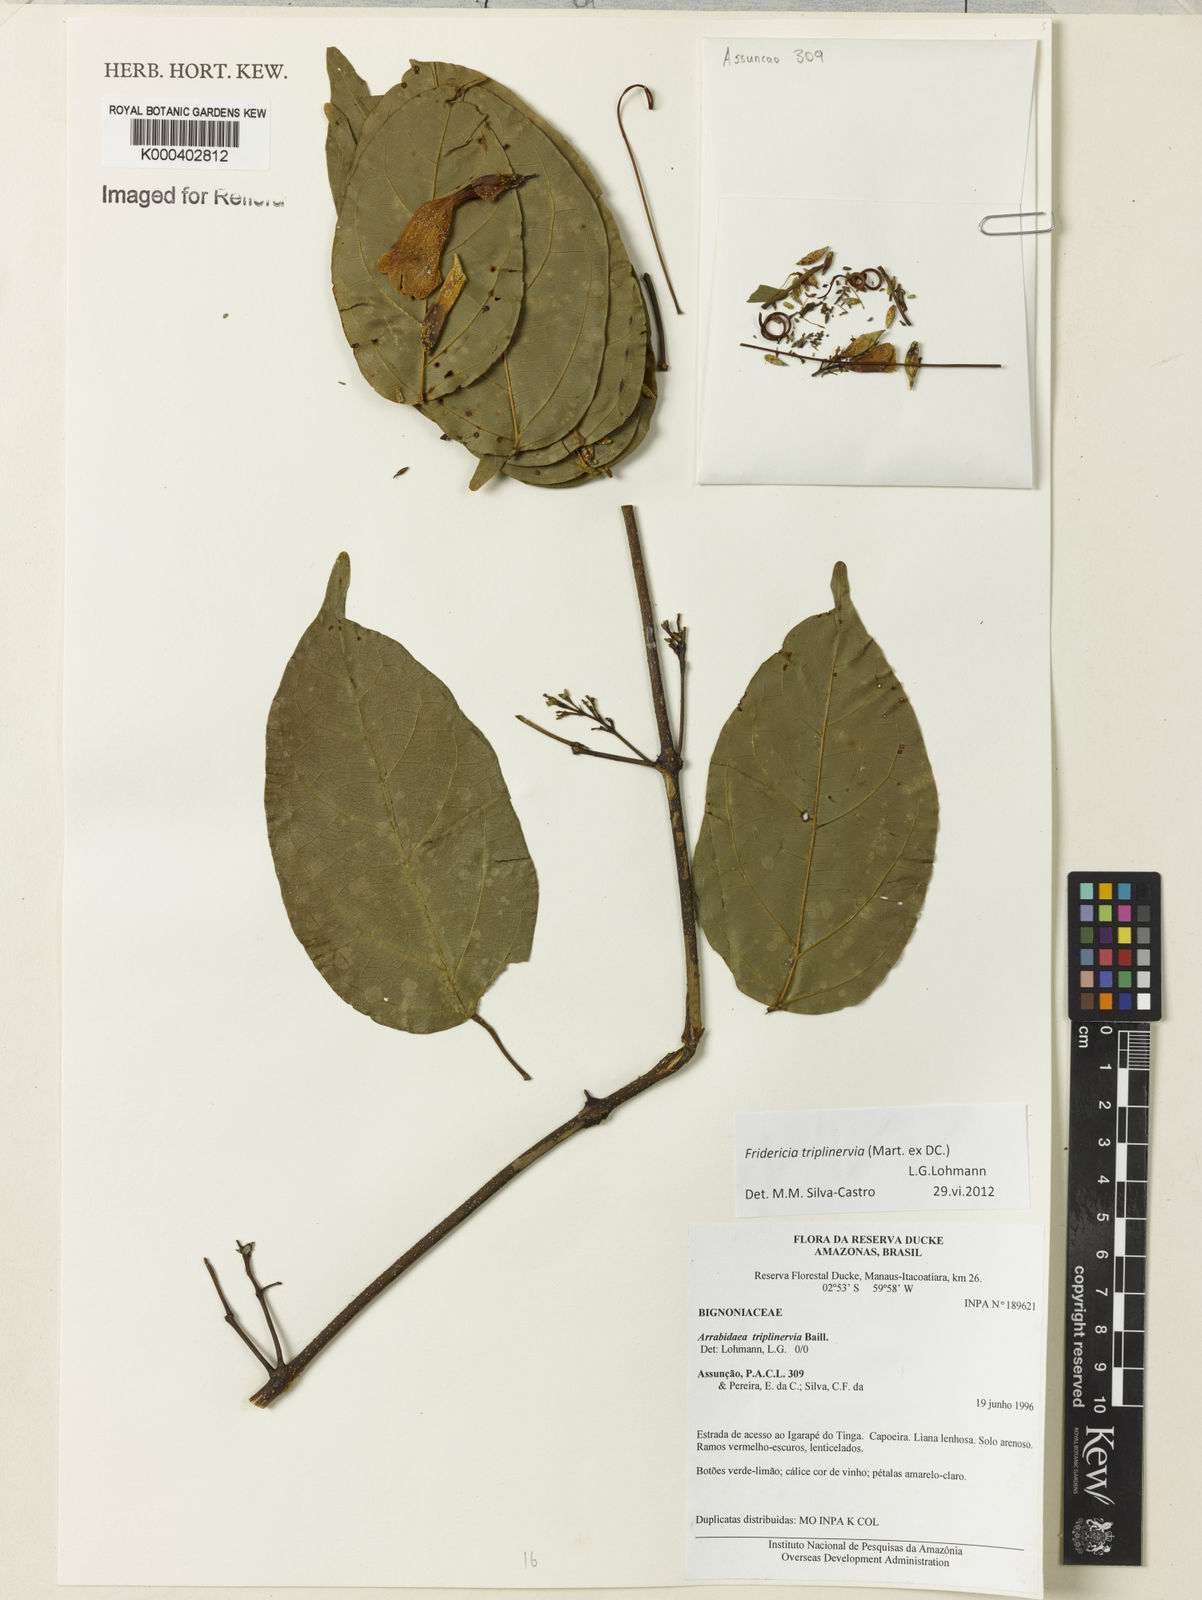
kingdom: Plantae
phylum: Tracheophyta
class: Magnoliopsida
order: Lamiales
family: Bignoniaceae
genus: Fridericia
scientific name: Fridericia triplinervia
